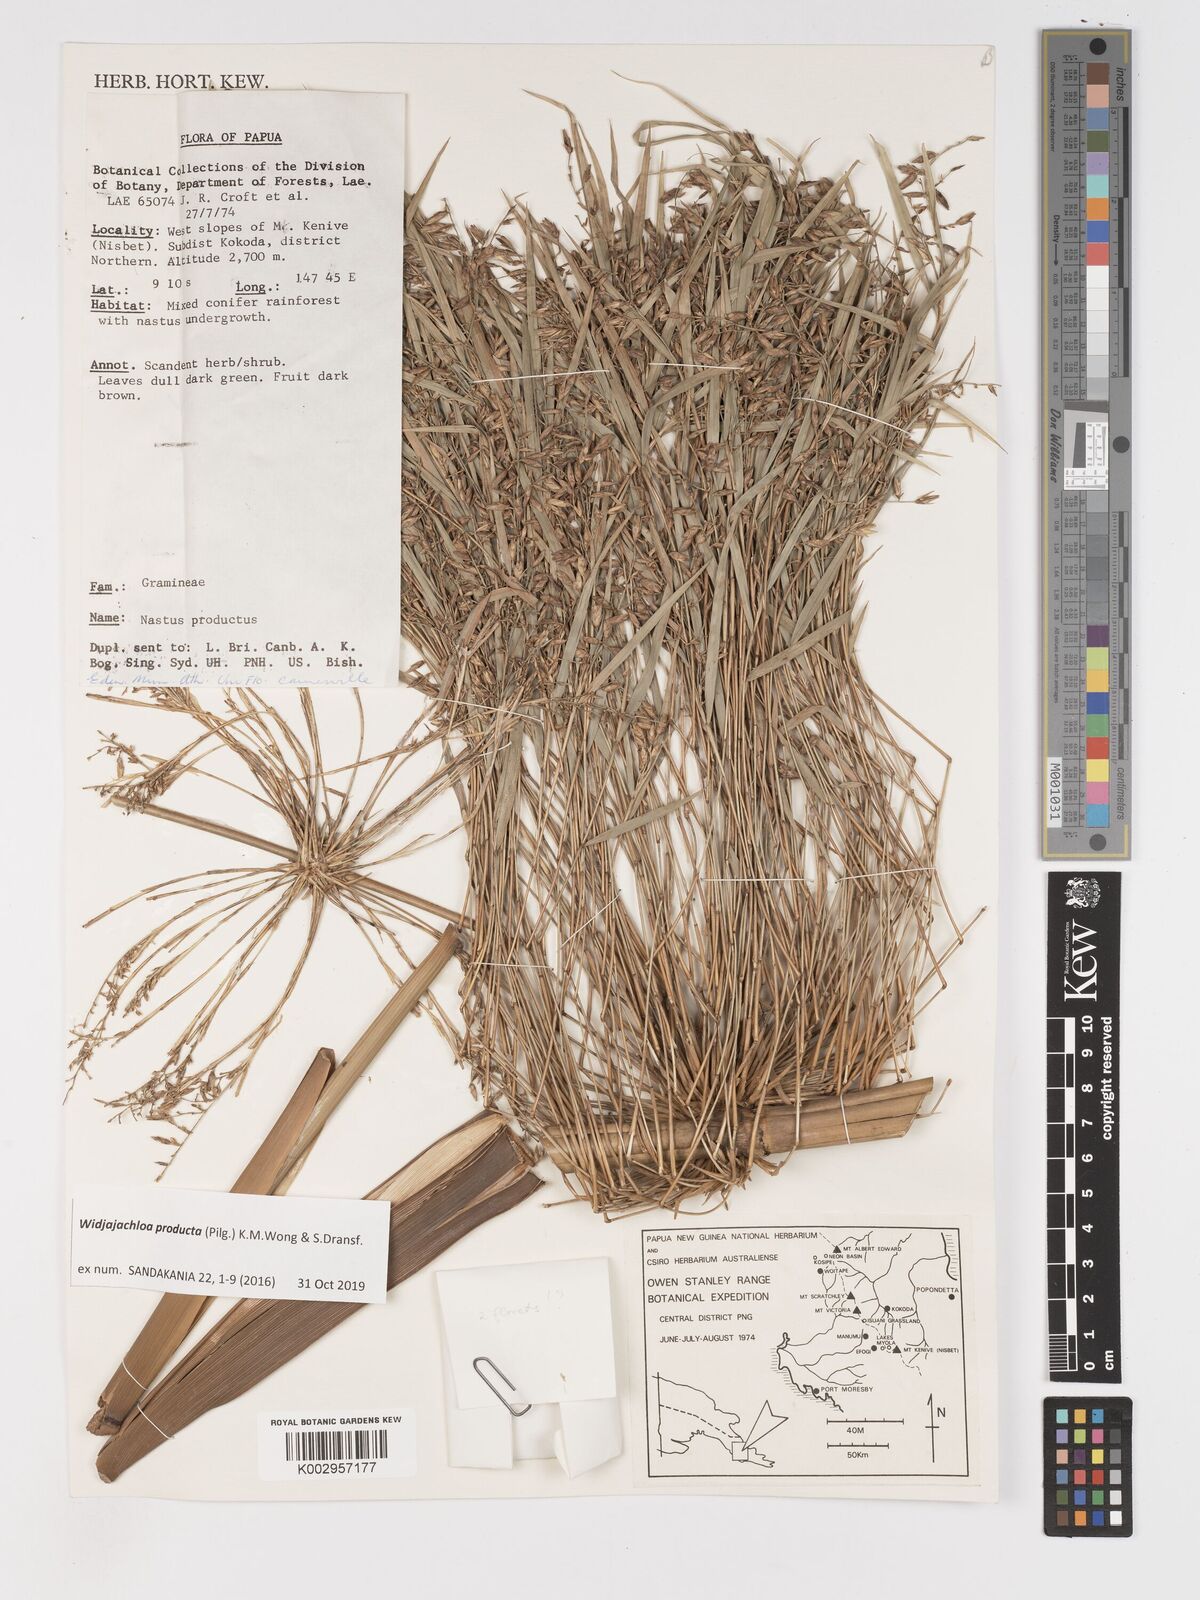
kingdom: Plantae
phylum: Tracheophyta
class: Liliopsida
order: Poales
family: Poaceae
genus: Widjajachloa
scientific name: Widjajachloa producta
